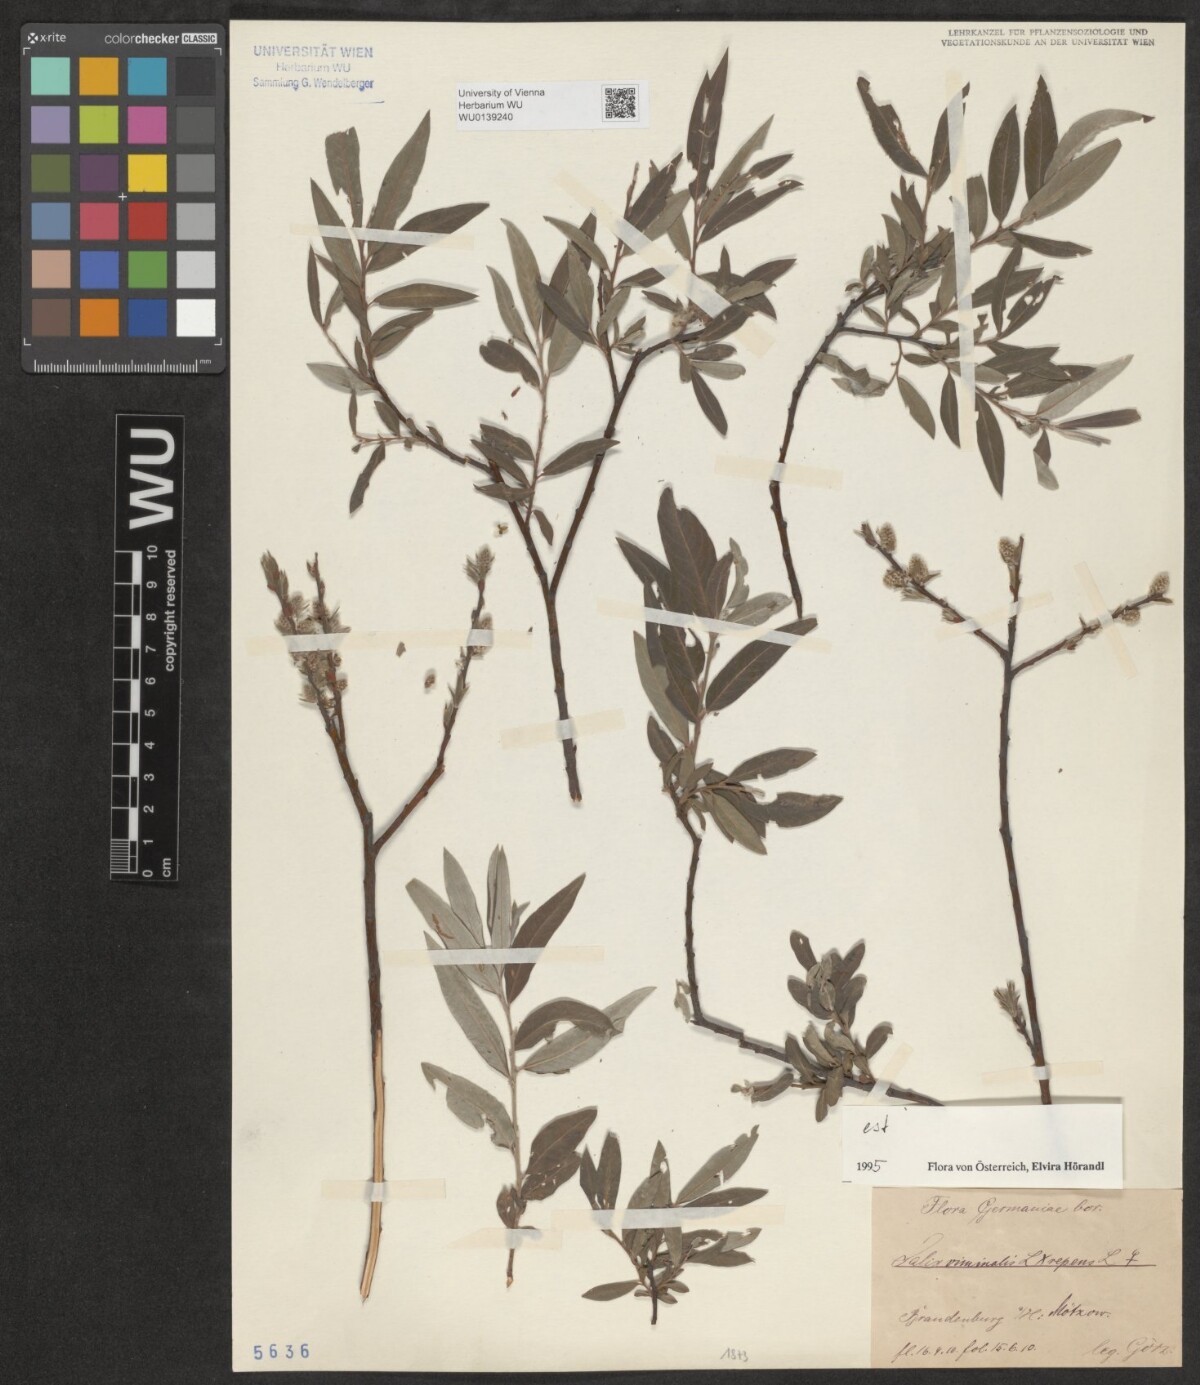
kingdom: Plantae
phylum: Tracheophyta
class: Magnoliopsida
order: Malpighiales
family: Salicaceae
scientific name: Salicaceae
